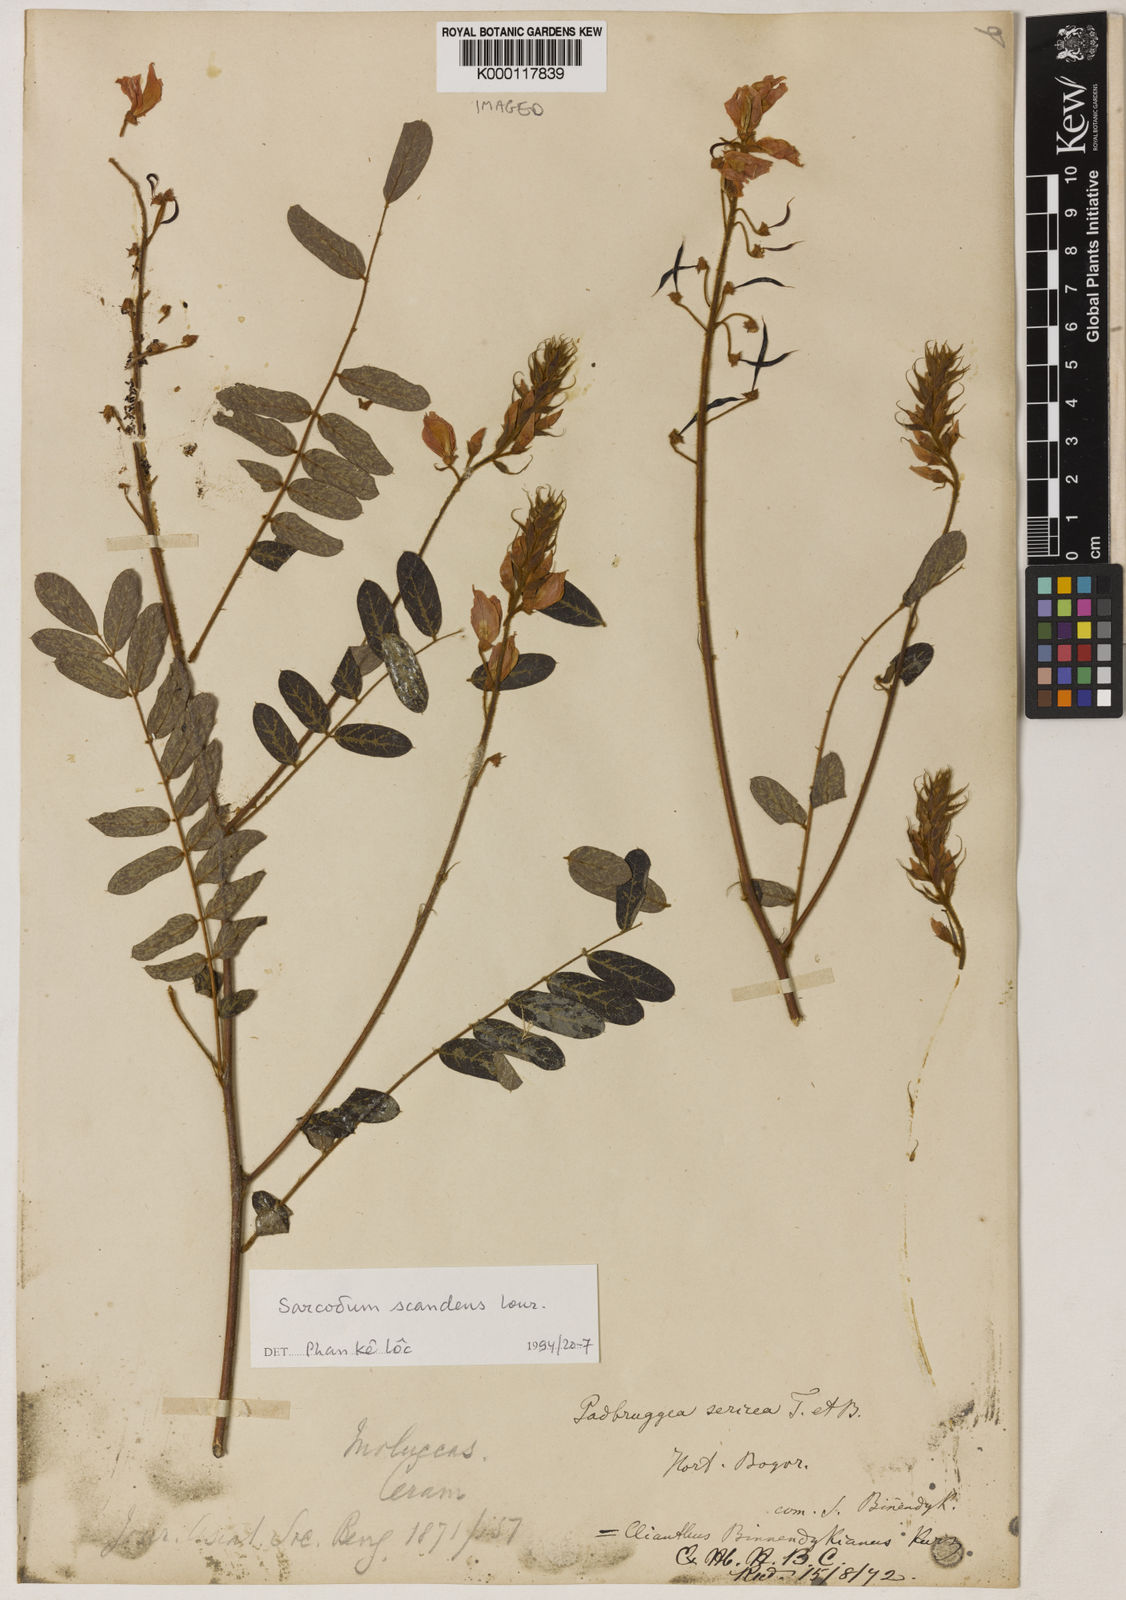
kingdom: Plantae
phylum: Tracheophyta
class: Magnoliopsida
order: Fabales
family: Fabaceae
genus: Sarcodum
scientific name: Sarcodum scandens
